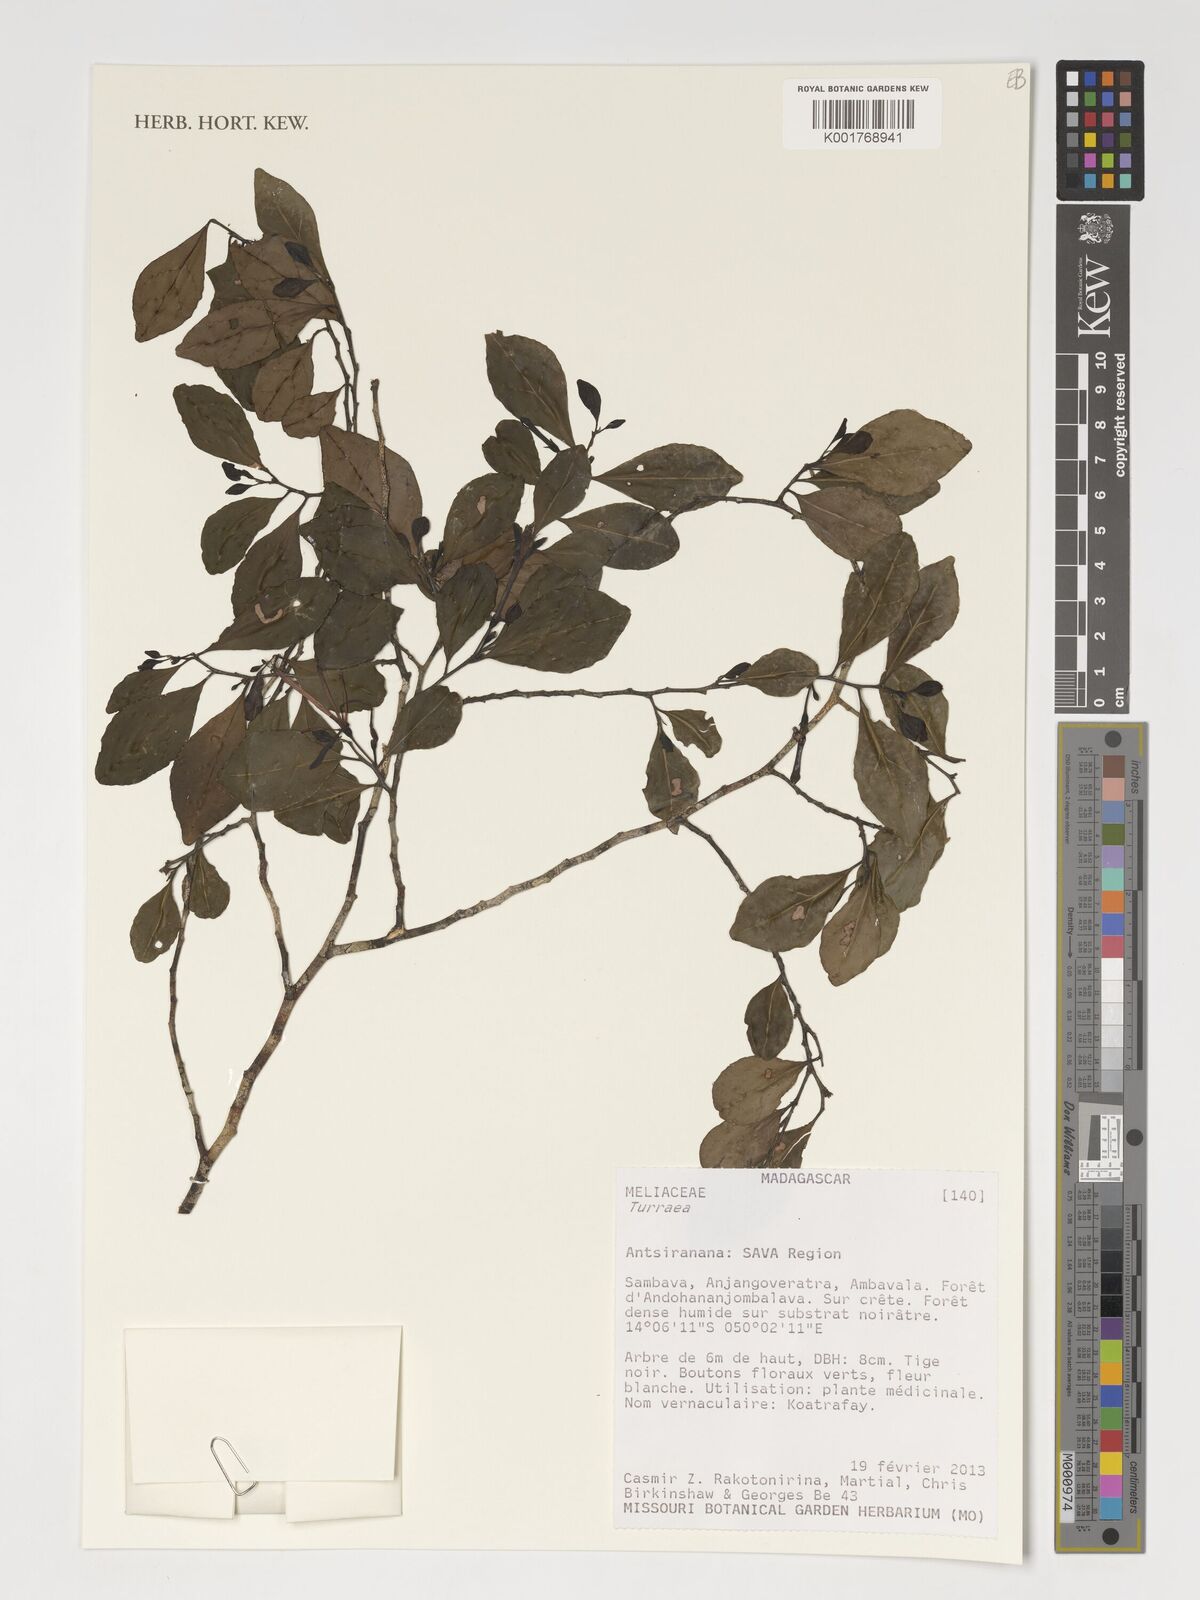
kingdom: Plantae
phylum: Tracheophyta
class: Magnoliopsida
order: Sapindales
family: Meliaceae
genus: Turraea
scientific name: Turraea
